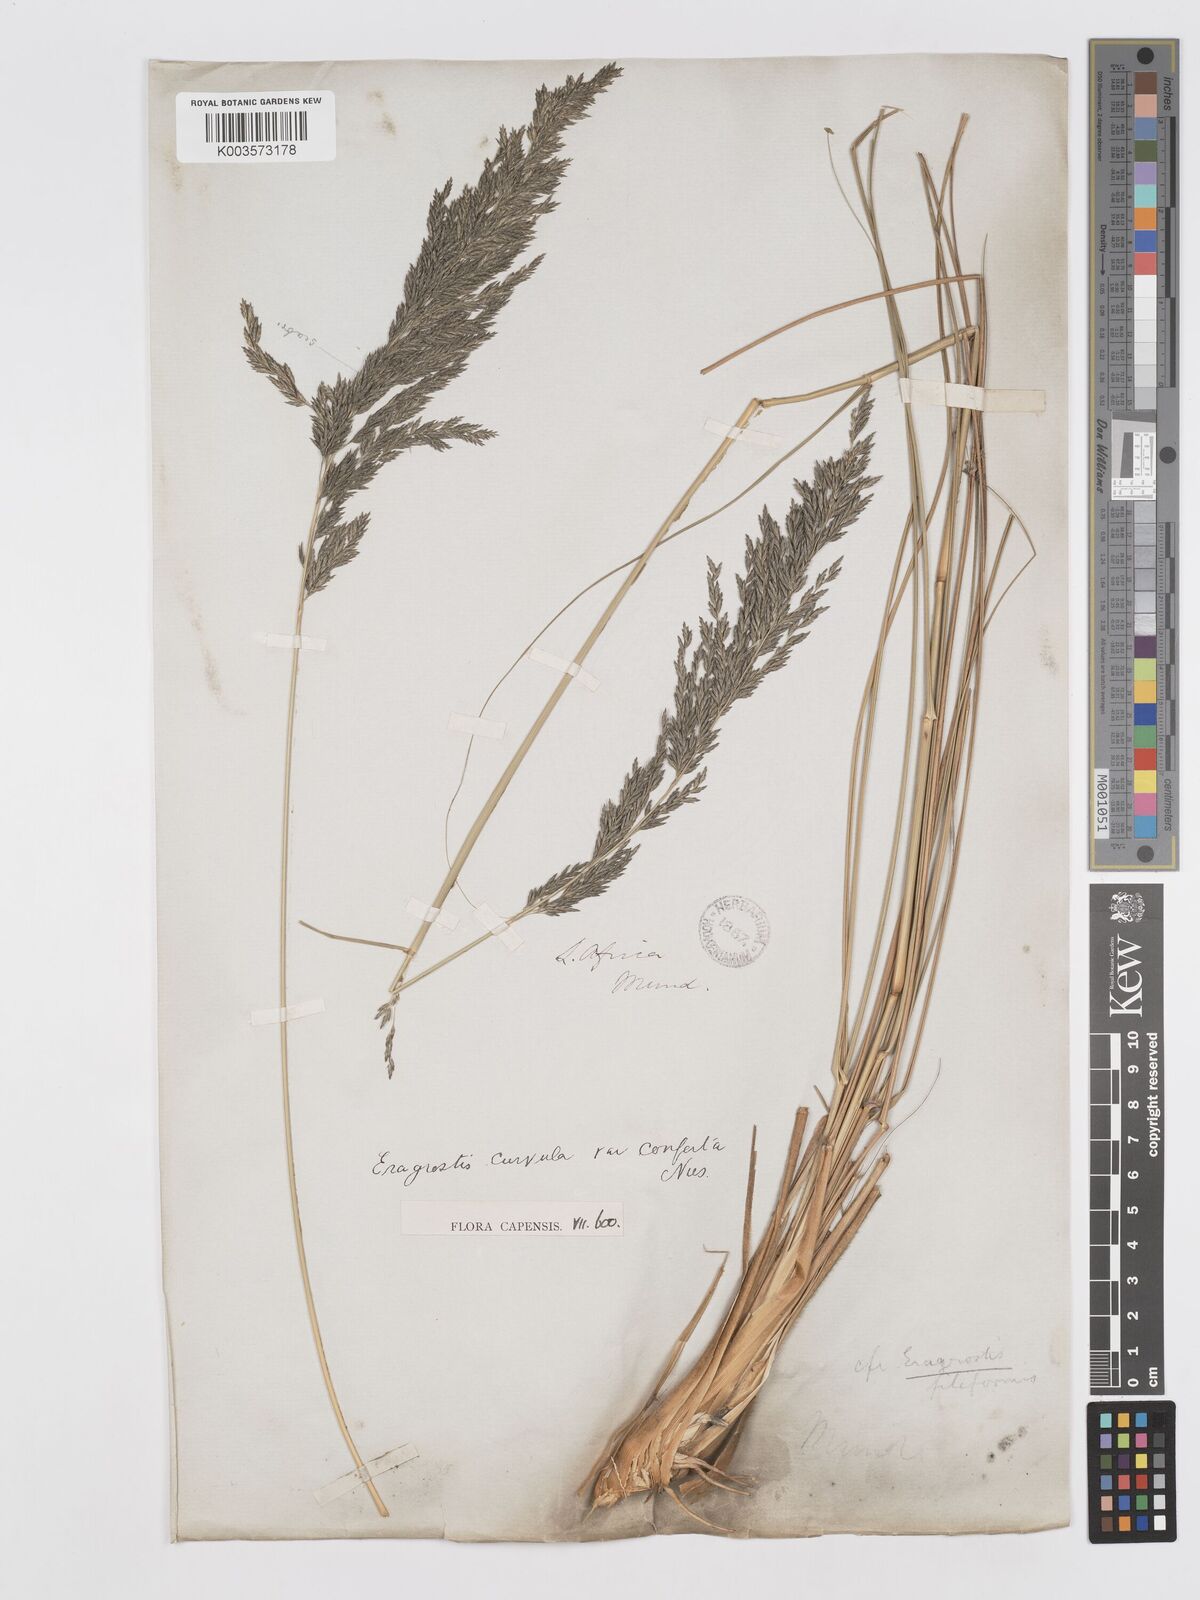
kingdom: Plantae
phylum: Tracheophyta
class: Liliopsida
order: Poales
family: Poaceae
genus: Eragrostis
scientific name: Eragrostis curvula
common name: African love-grass
